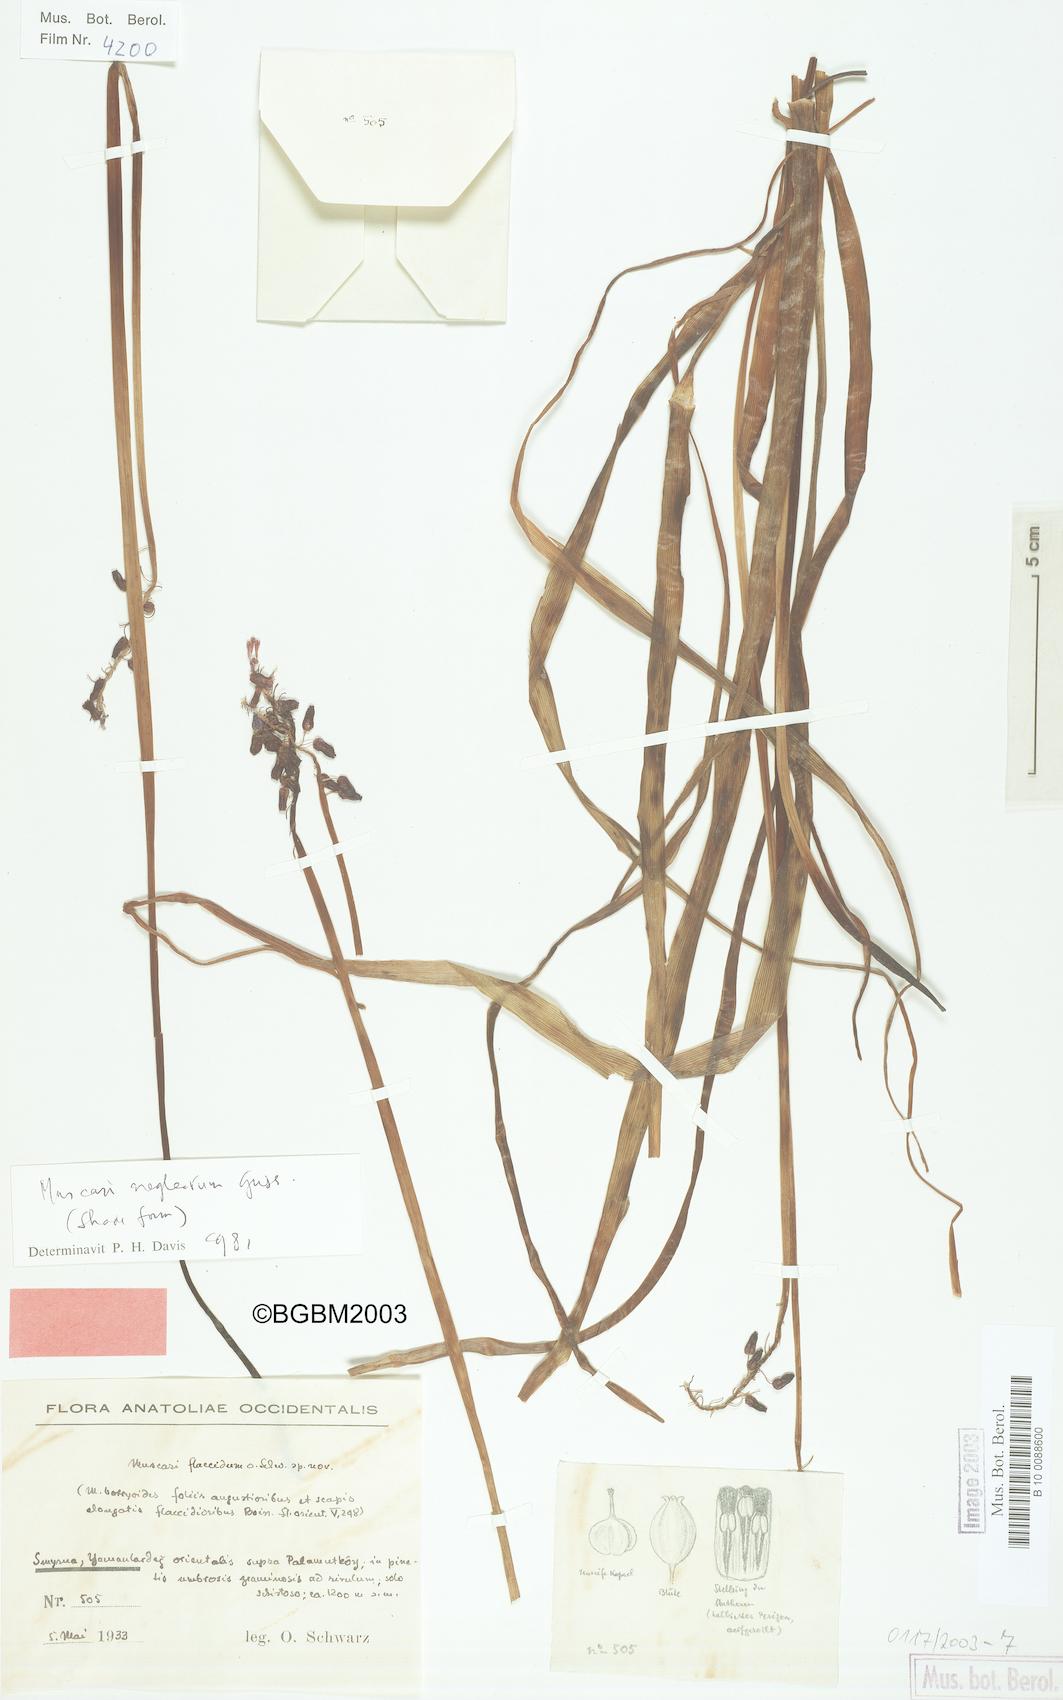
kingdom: Plantae
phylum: Tracheophyta
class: Liliopsida
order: Asparagales
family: Asparagaceae
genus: Muscari
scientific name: Muscari neglectum
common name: Grape-hyacinth
